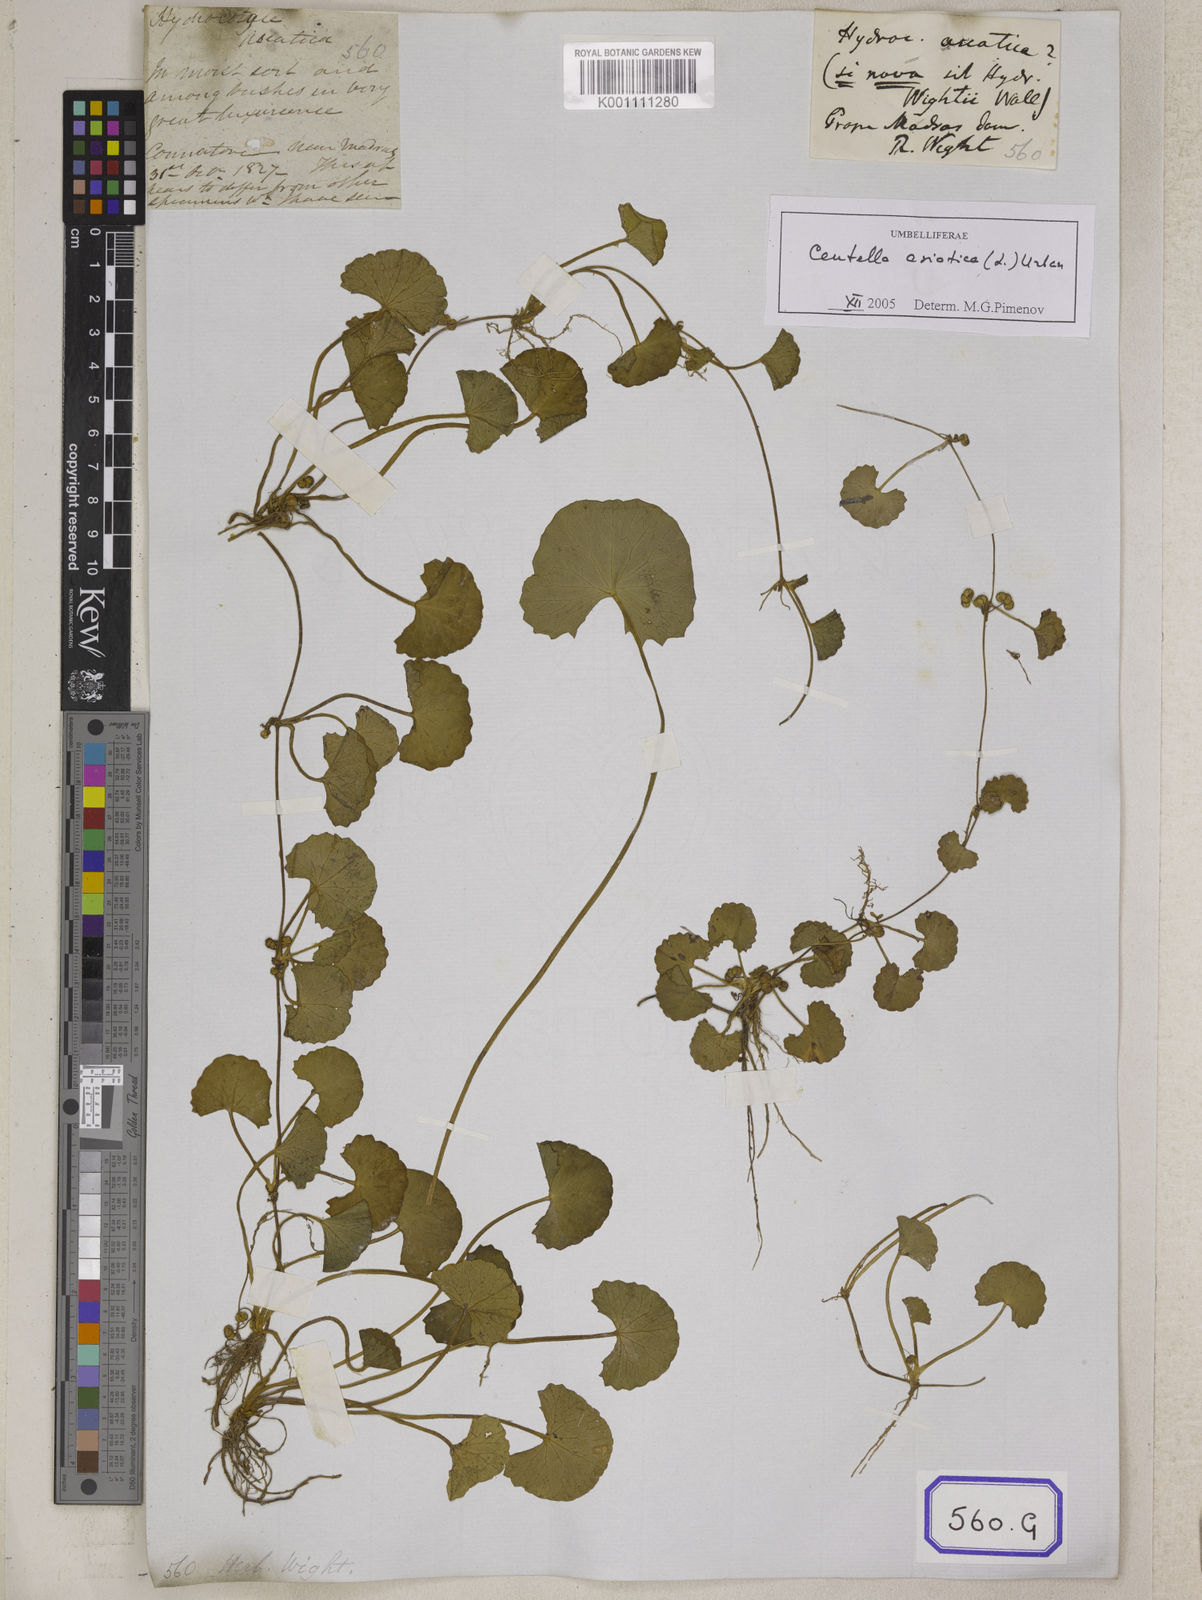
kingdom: Plantae
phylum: Tracheophyta
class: Magnoliopsida
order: Apiales
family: Apiaceae
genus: Centella
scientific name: Centella asiatica
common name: Spadeleaf
